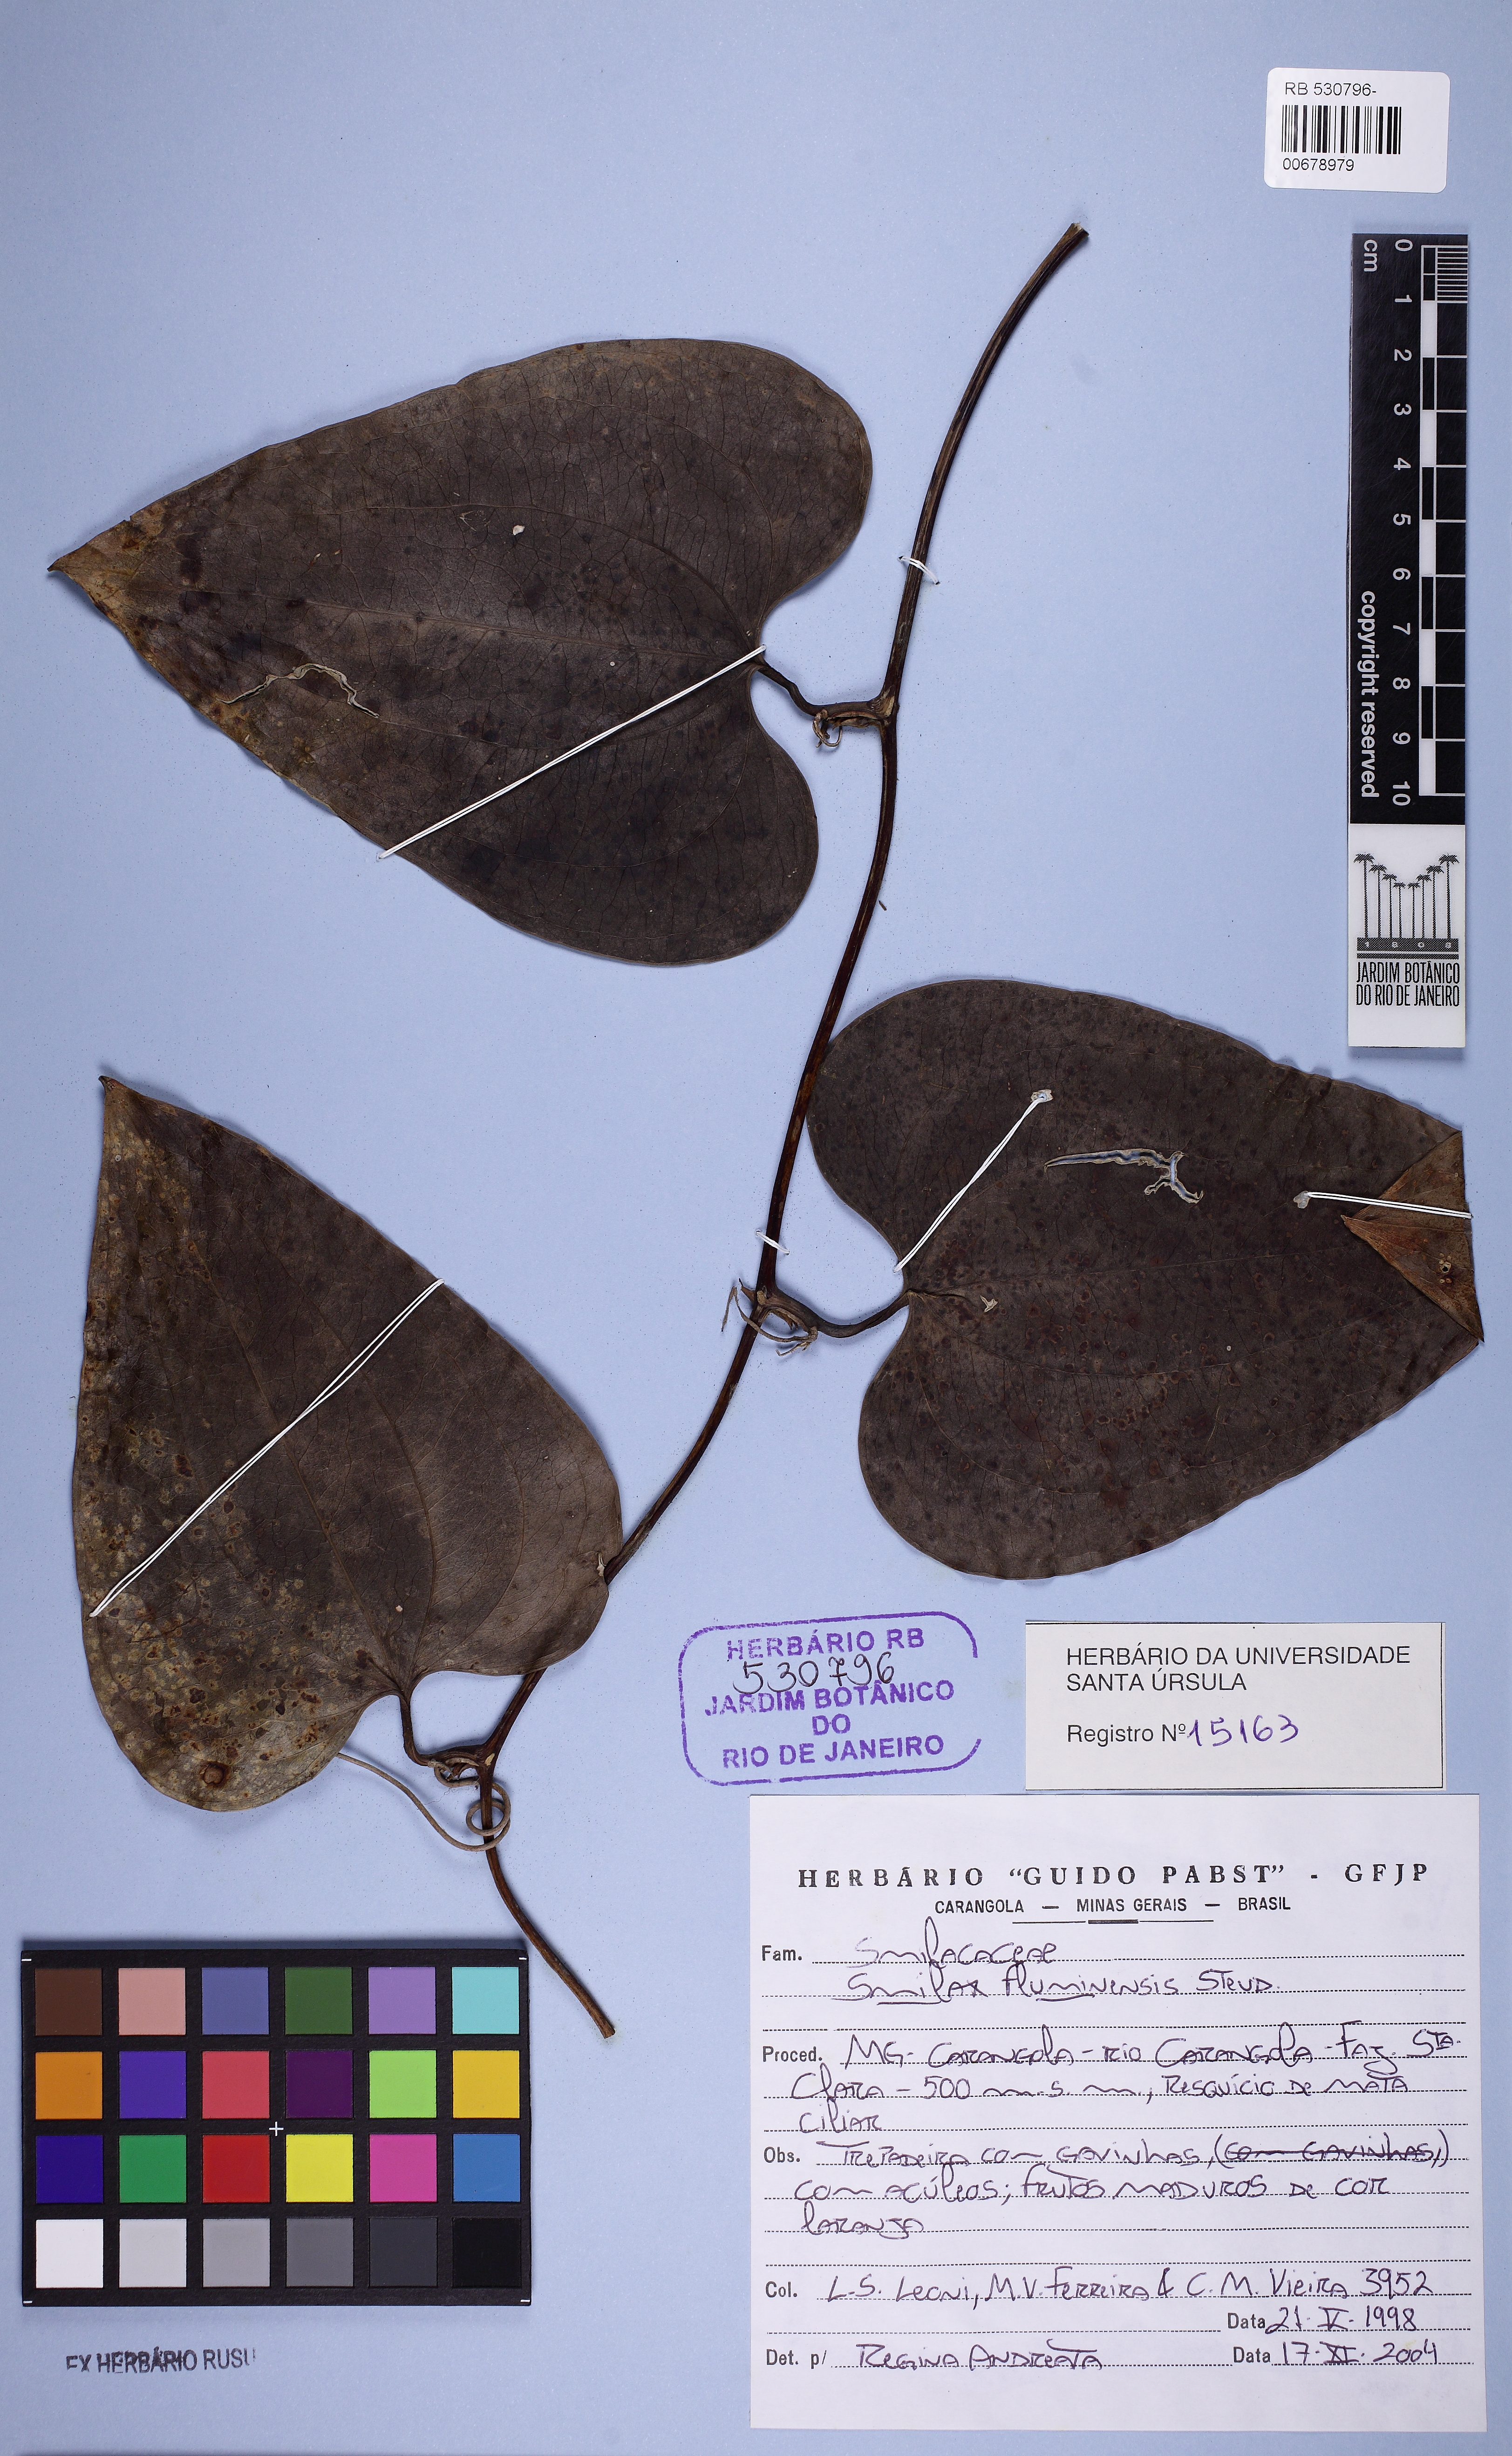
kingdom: Plantae
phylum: Tracheophyta
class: Liliopsida
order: Liliales
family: Smilacaceae
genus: Smilax
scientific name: Smilax fluminensis
